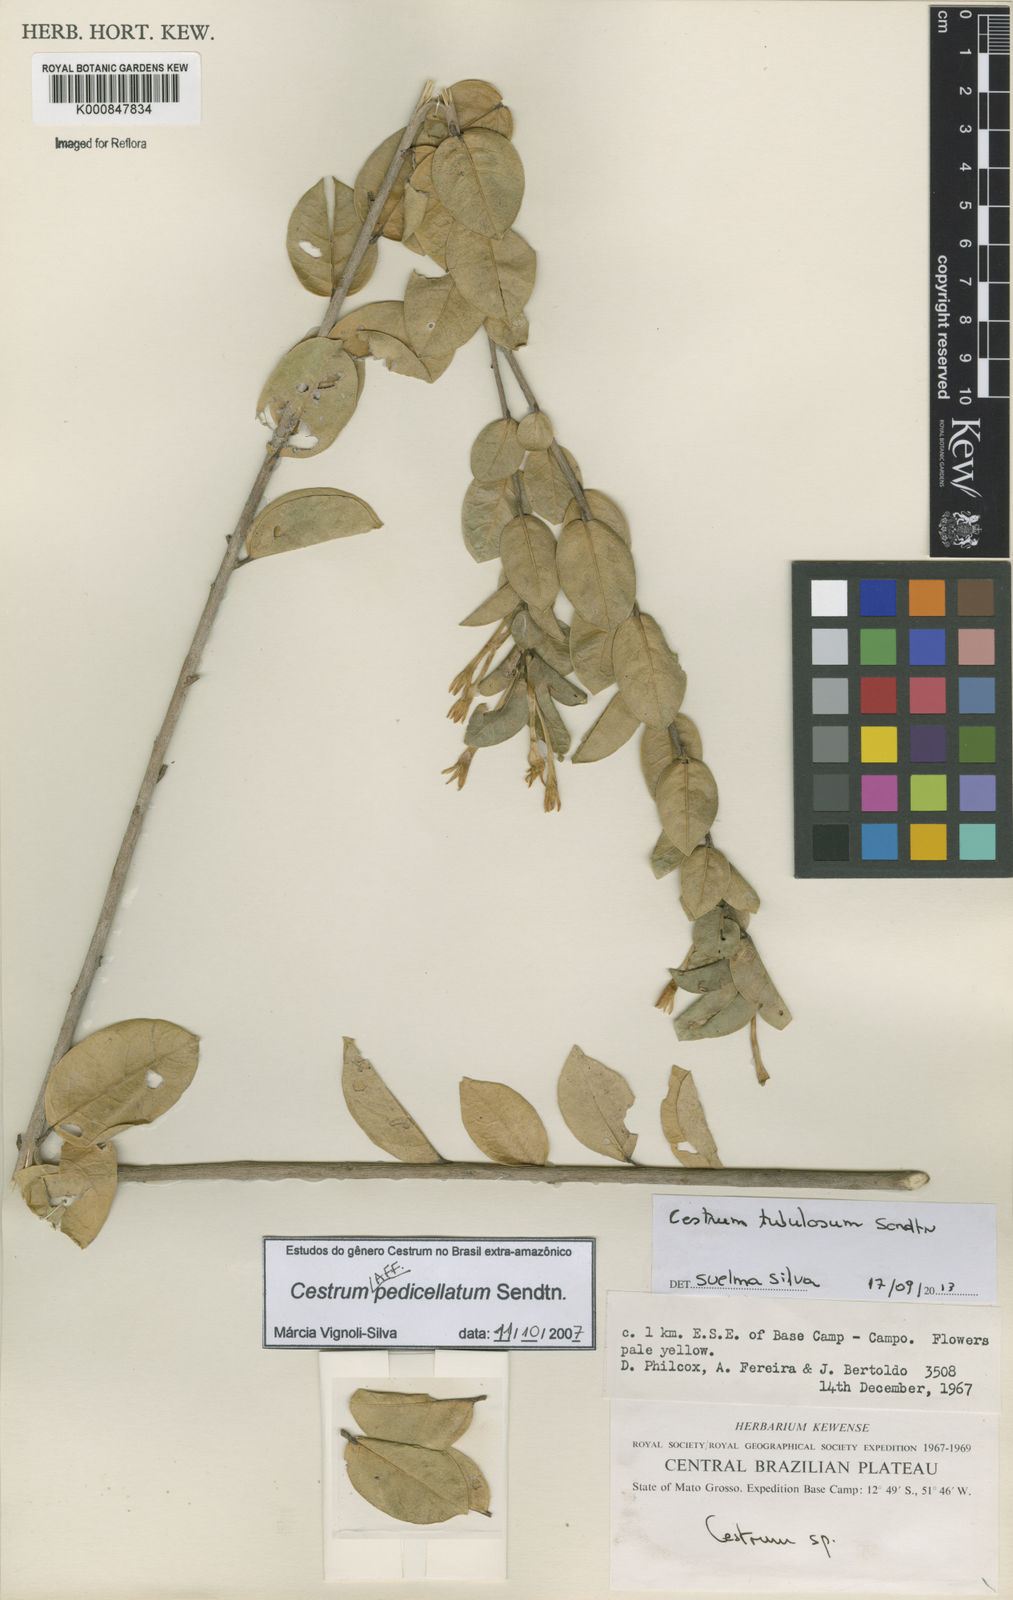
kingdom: Plantae
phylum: Tracheophyta
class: Magnoliopsida
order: Solanales
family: Solanaceae
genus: Cestrum
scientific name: Cestrum pedicellatum
